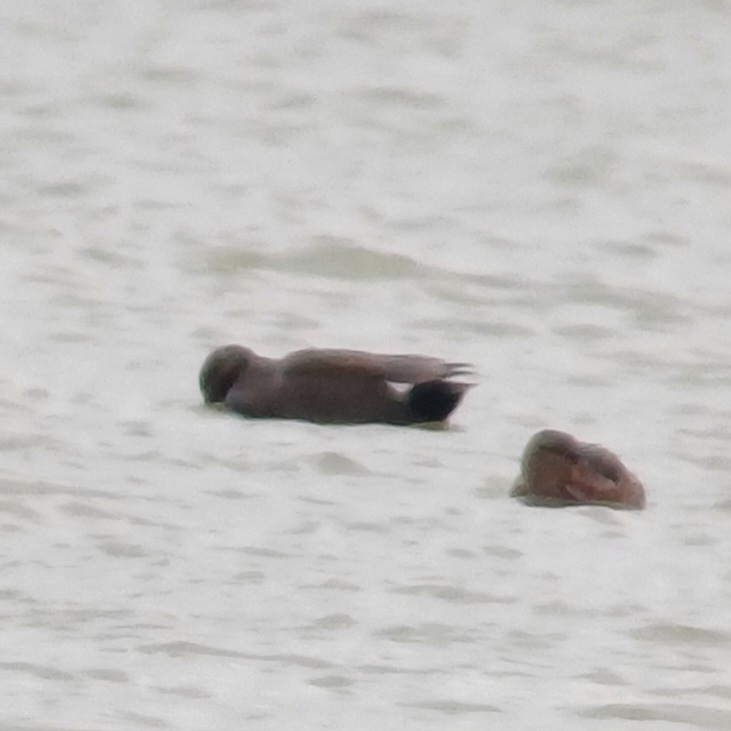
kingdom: Animalia
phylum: Chordata
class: Aves
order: Anseriformes
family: Anatidae
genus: Mareca
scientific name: Mareca strepera
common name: Knarand
